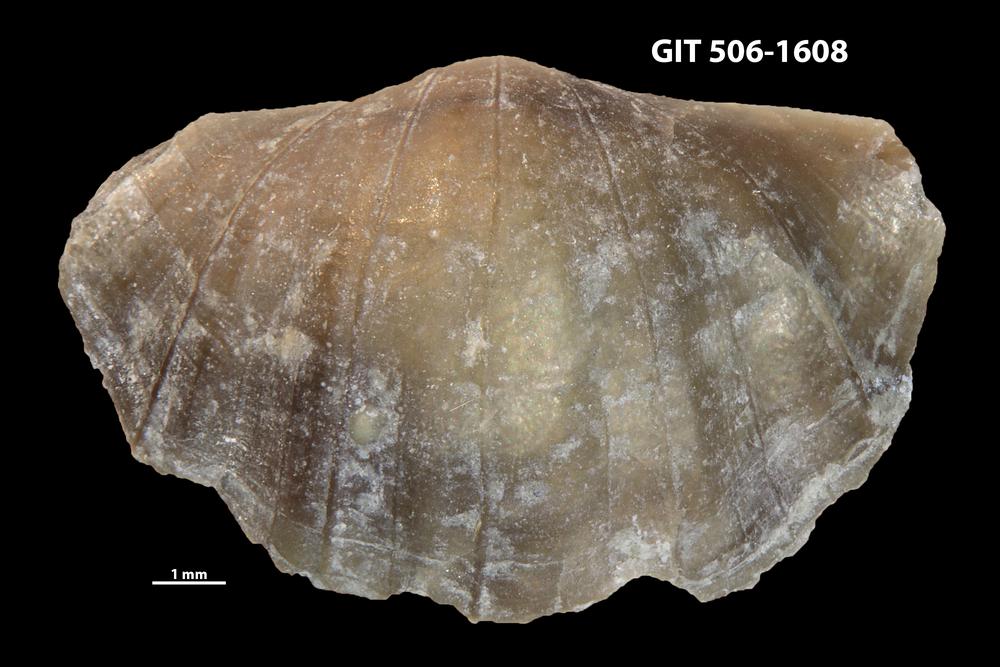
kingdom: Animalia
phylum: Brachiopoda
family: Sowerbyellidae
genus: Ygerodiscus
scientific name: Ygerodiscus Eoplectodonta bella
